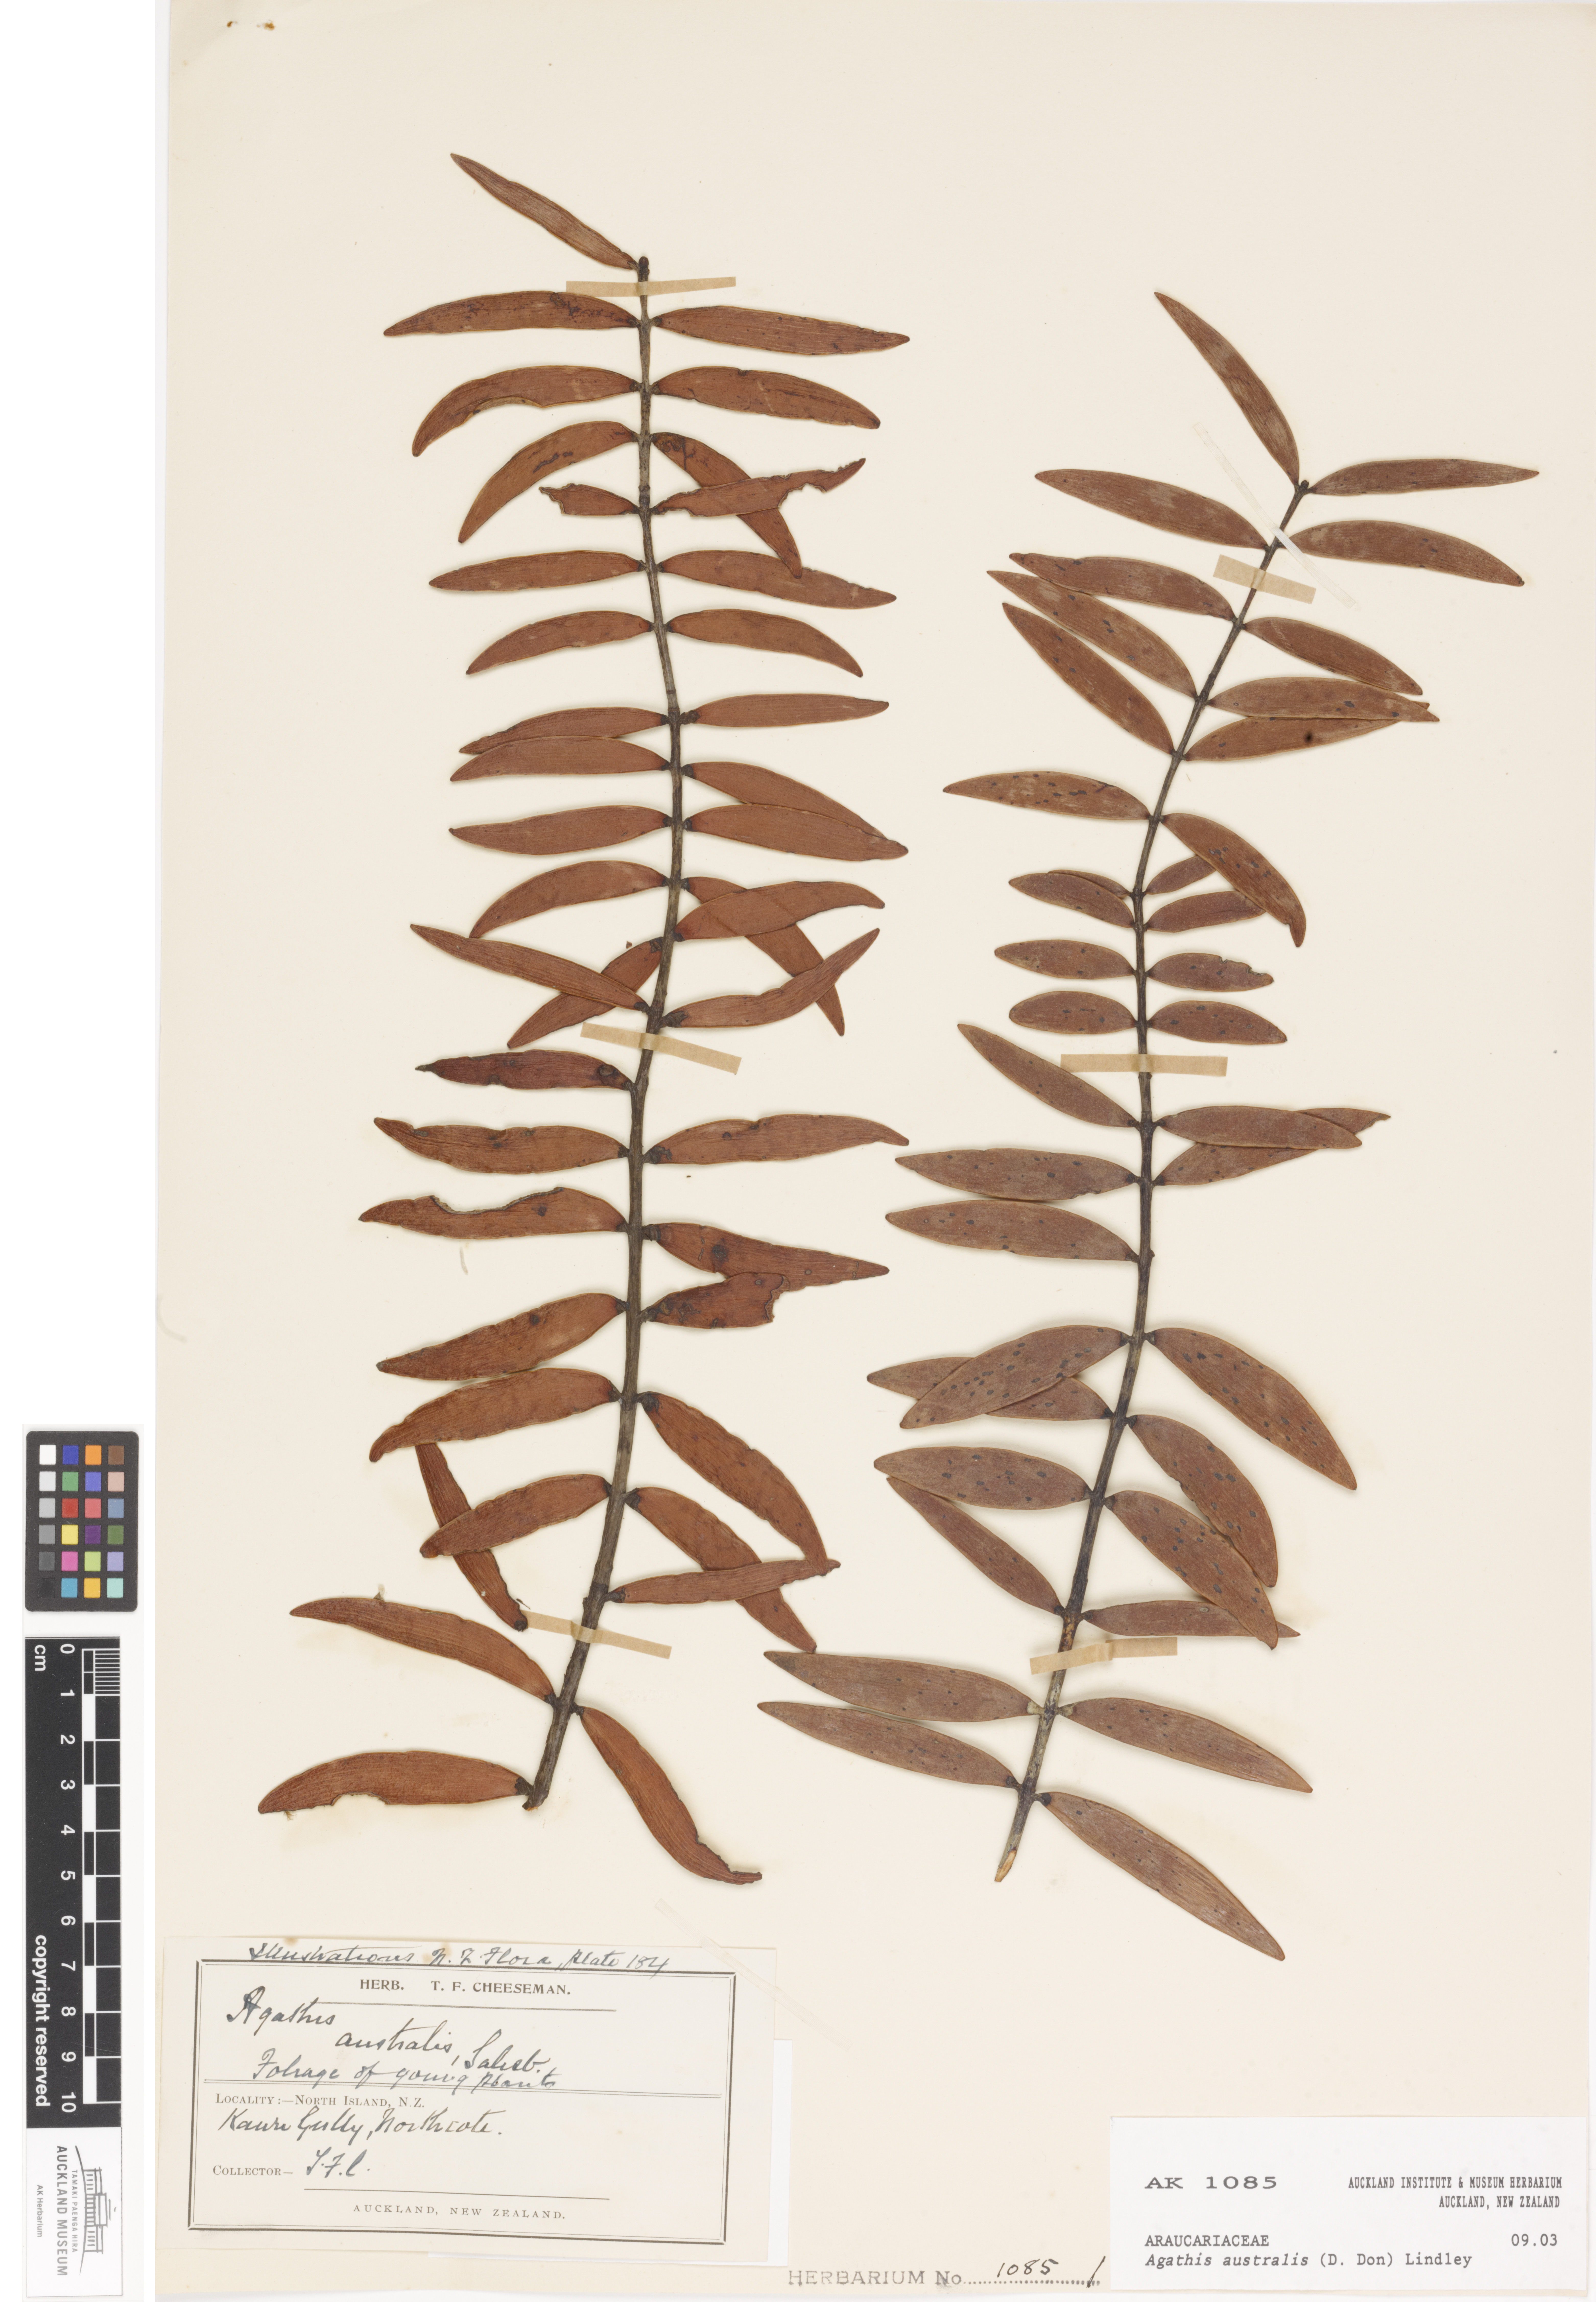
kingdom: Plantae
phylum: Tracheophyta
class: Pinopsida
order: Pinales
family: Araucariaceae
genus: Agathis
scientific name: Agathis australis
